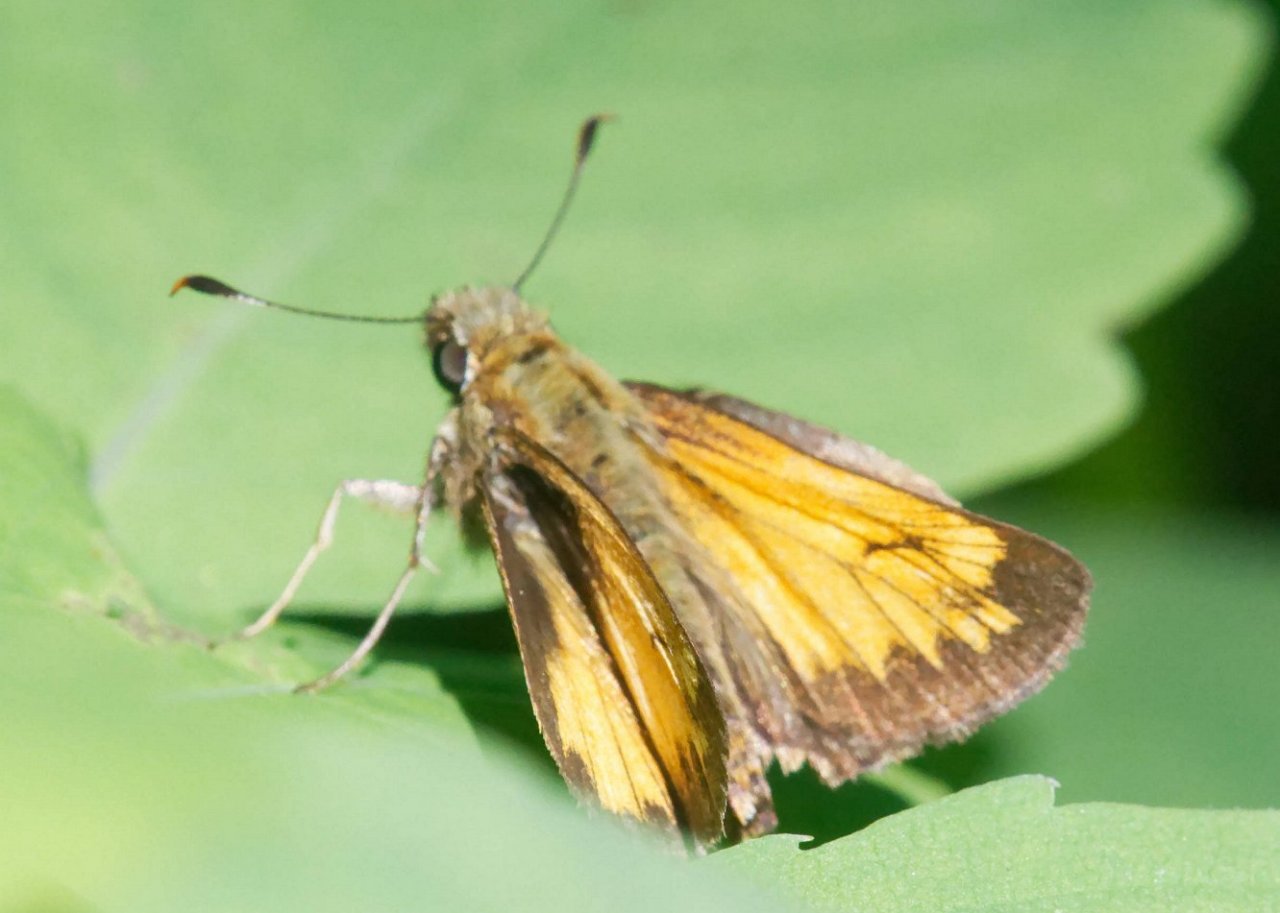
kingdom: Animalia
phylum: Arthropoda
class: Insecta
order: Lepidoptera
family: Hesperiidae
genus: Lon
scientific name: Lon hobomok
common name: Hobomok Skipper
